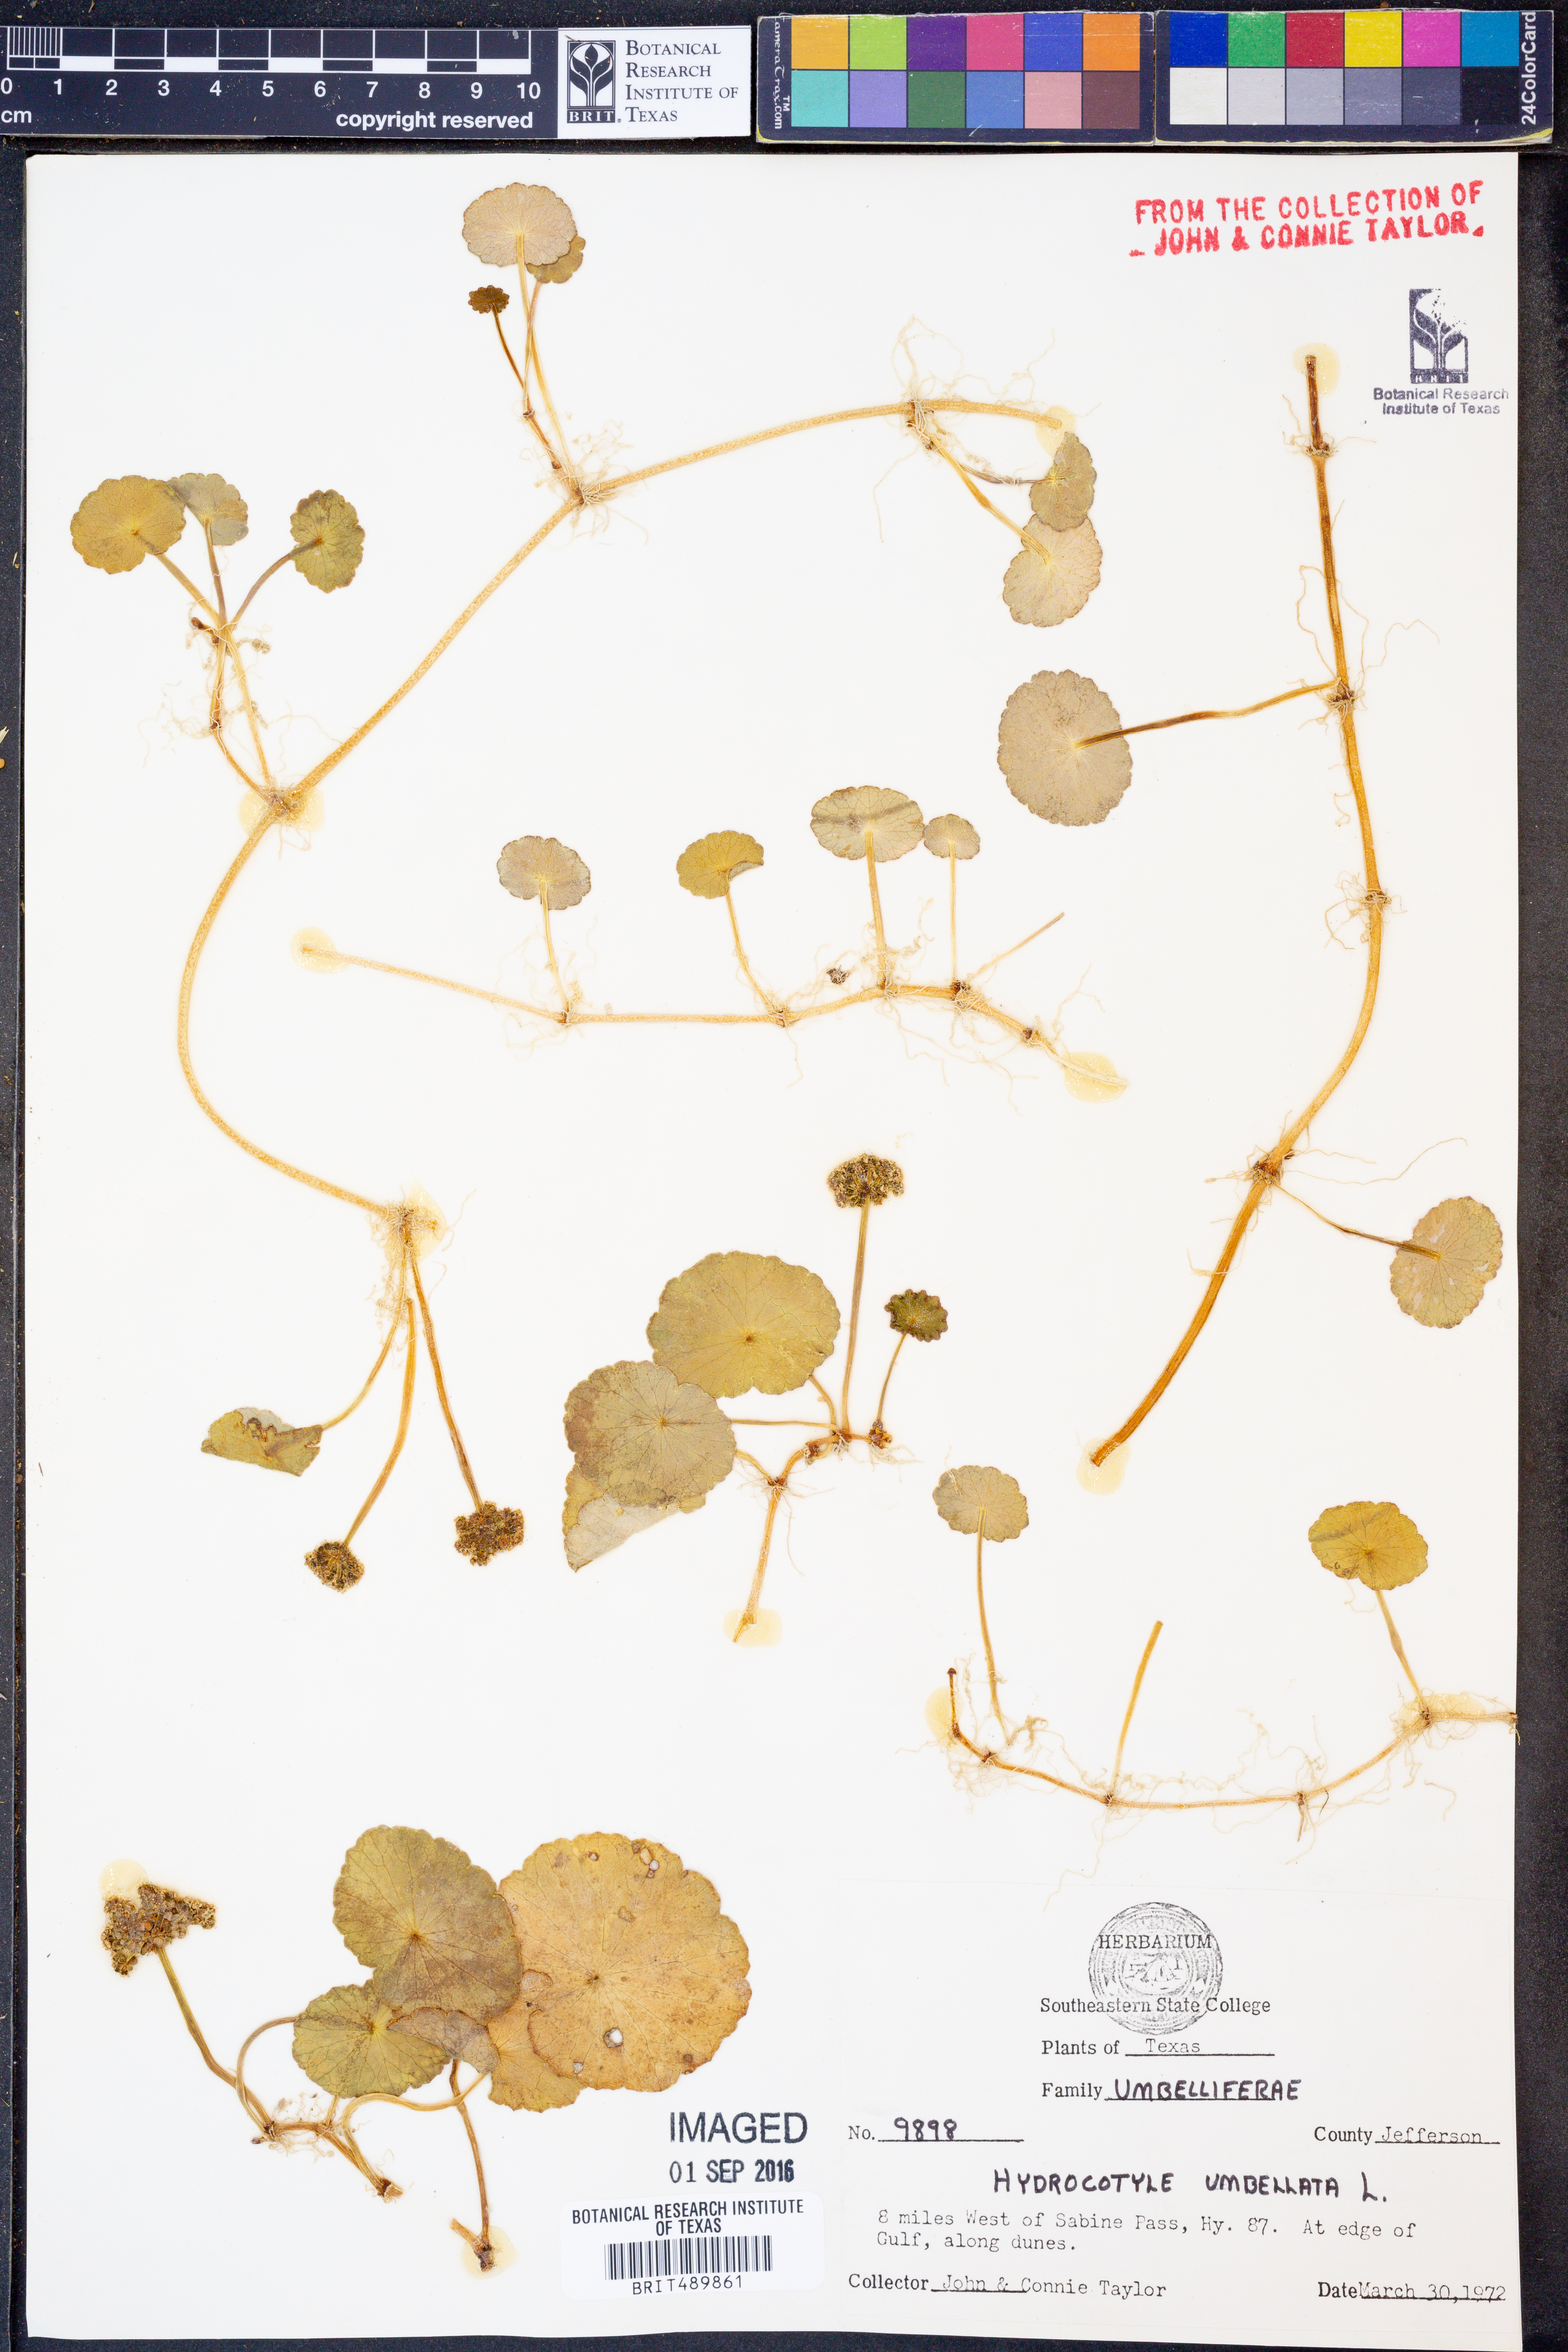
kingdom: Plantae
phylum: Tracheophyta
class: Magnoliopsida
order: Apiales
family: Araliaceae
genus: Hydrocotyle
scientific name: Hydrocotyle umbellata
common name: Water pennywort
